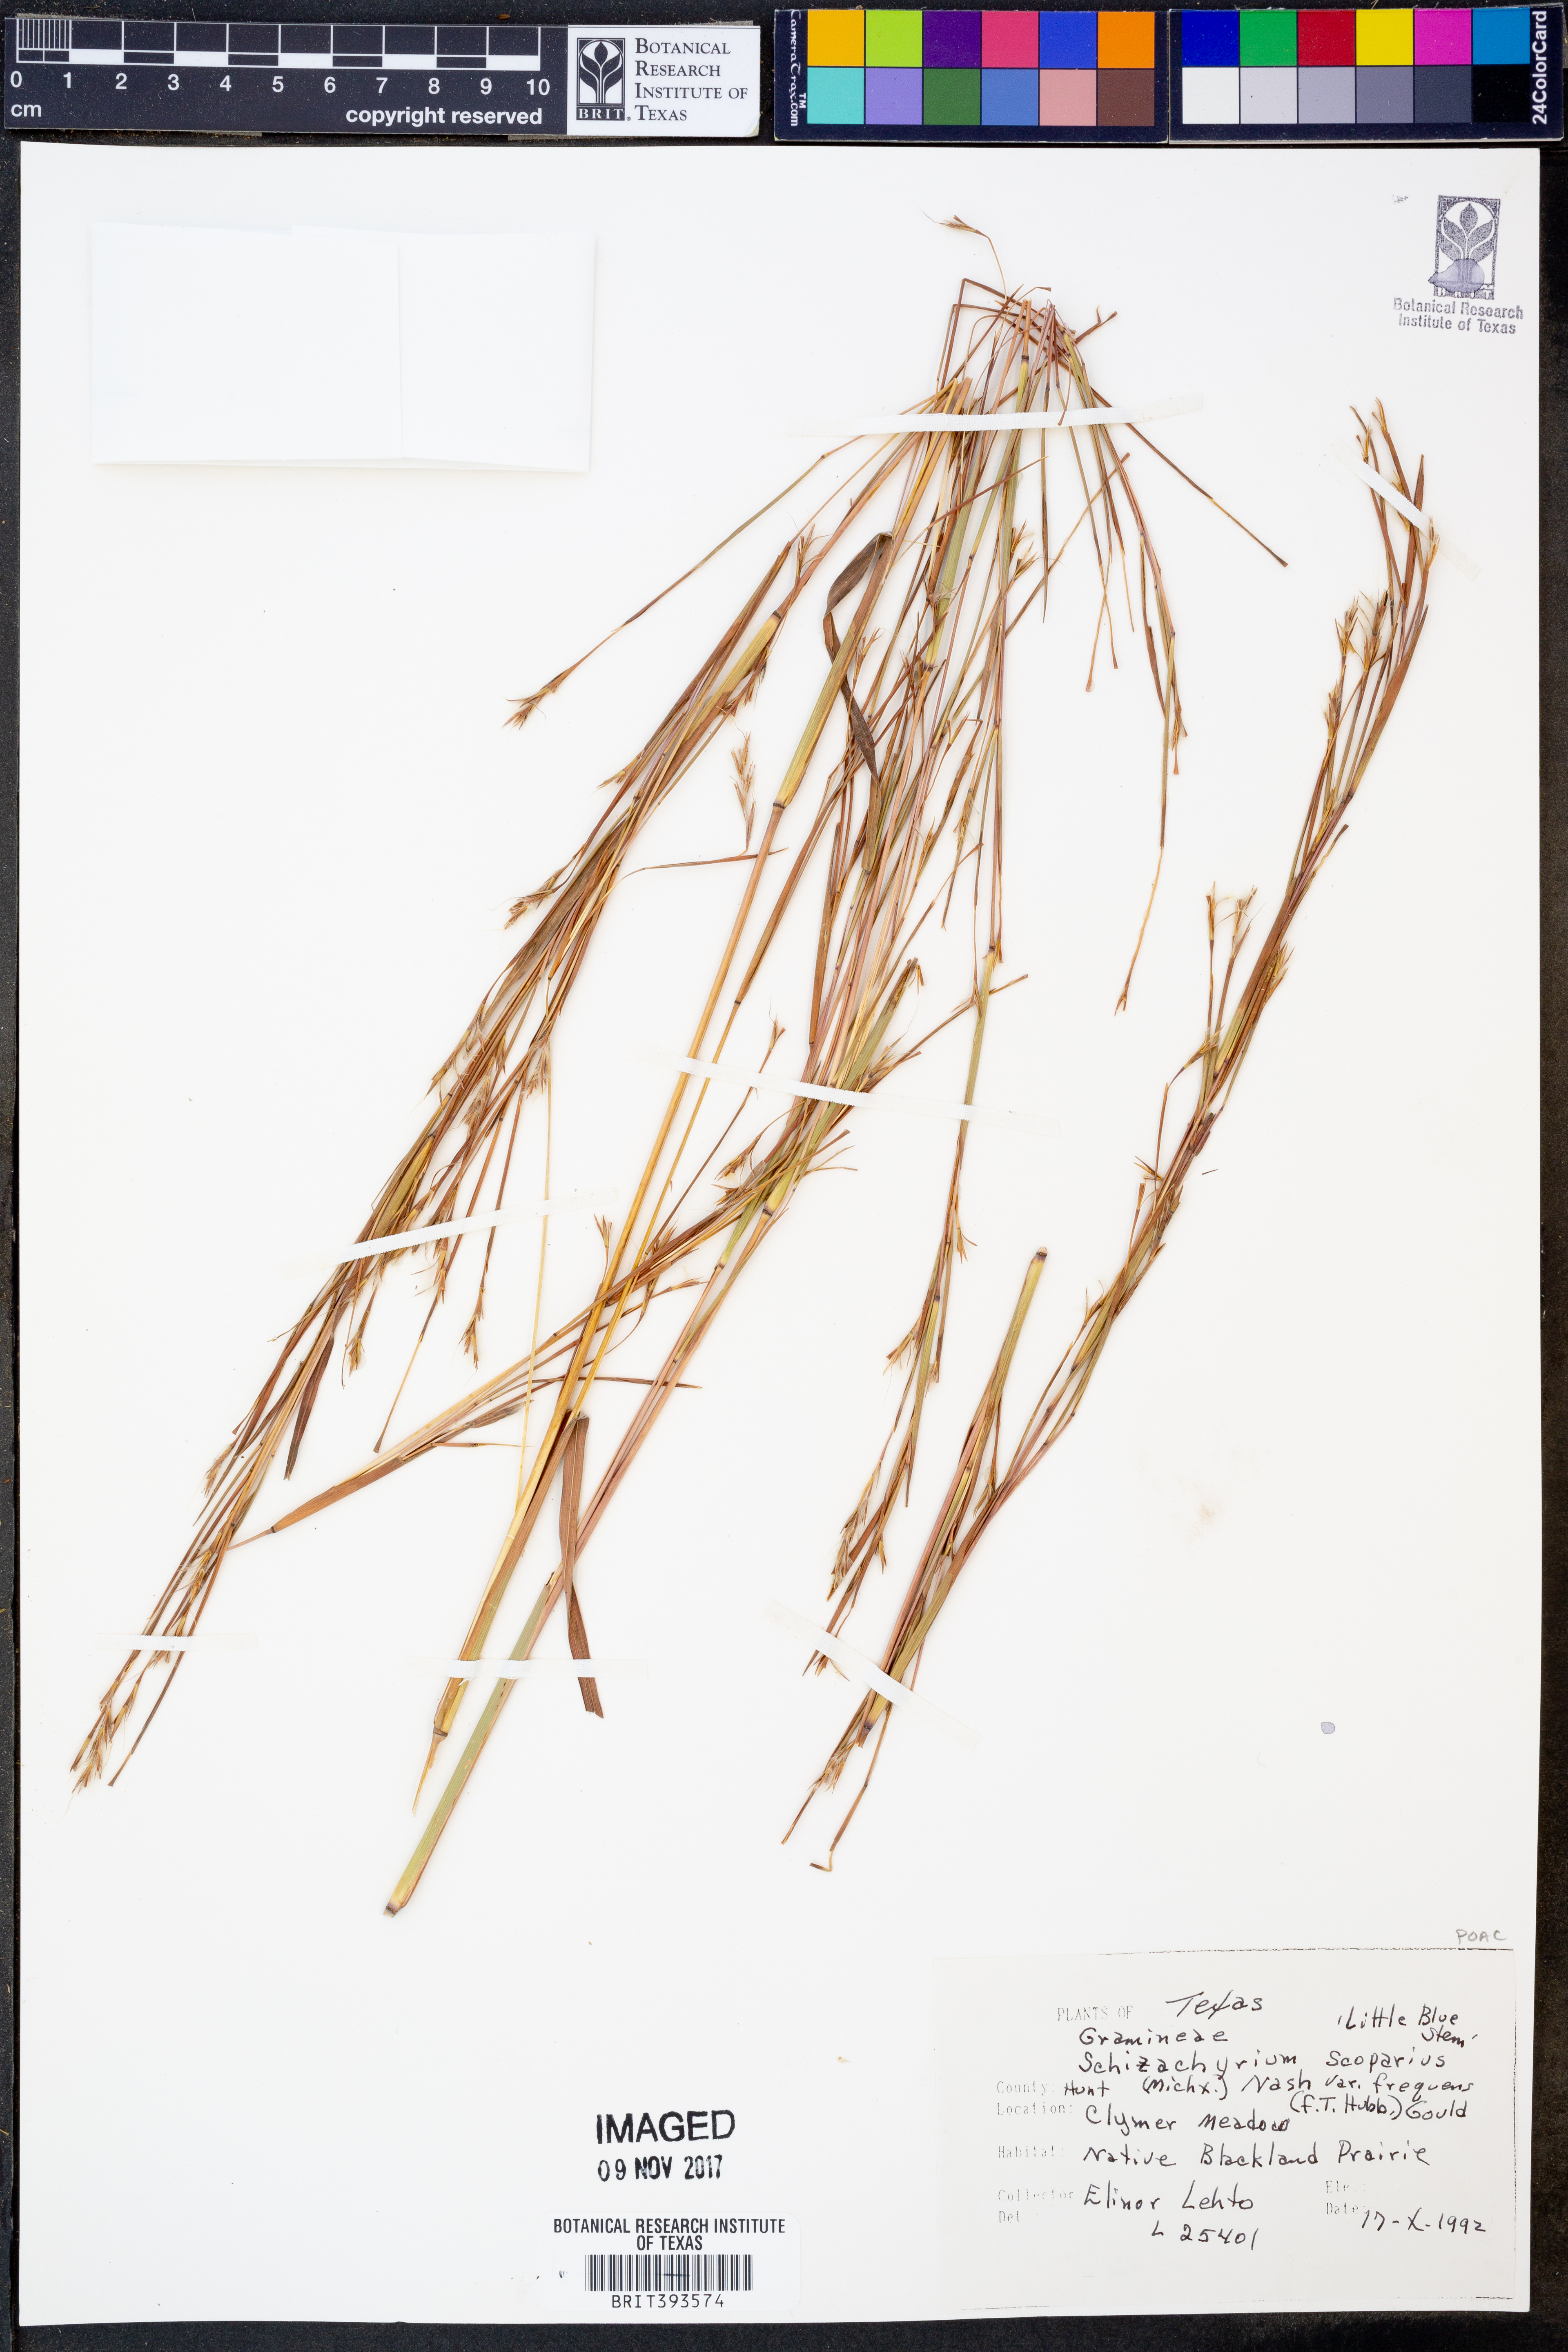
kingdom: Plantae
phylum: Tracheophyta
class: Liliopsida
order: Poales
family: Poaceae
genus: Schizachyrium
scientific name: Schizachyrium scoparium
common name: Little bluestem
